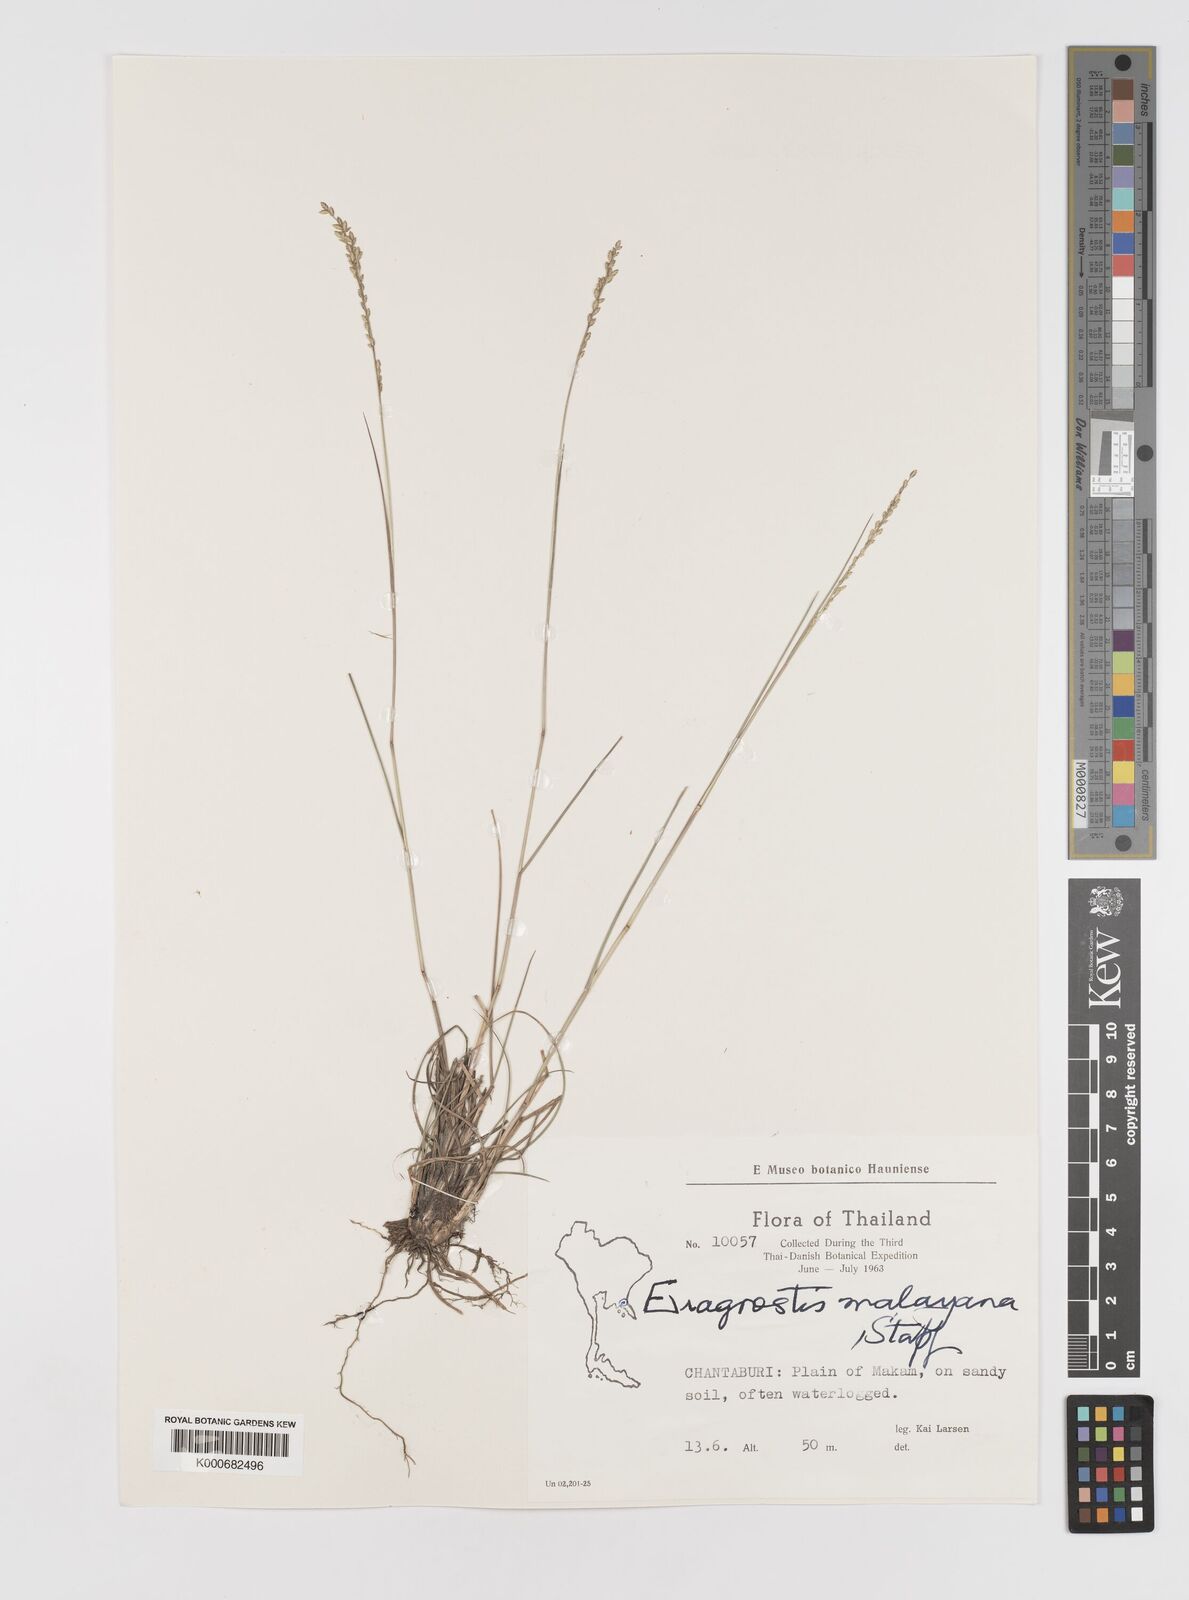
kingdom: Plantae
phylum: Tracheophyta
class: Liliopsida
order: Poales
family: Poaceae
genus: Eragrostis
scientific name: Eragrostis montana
